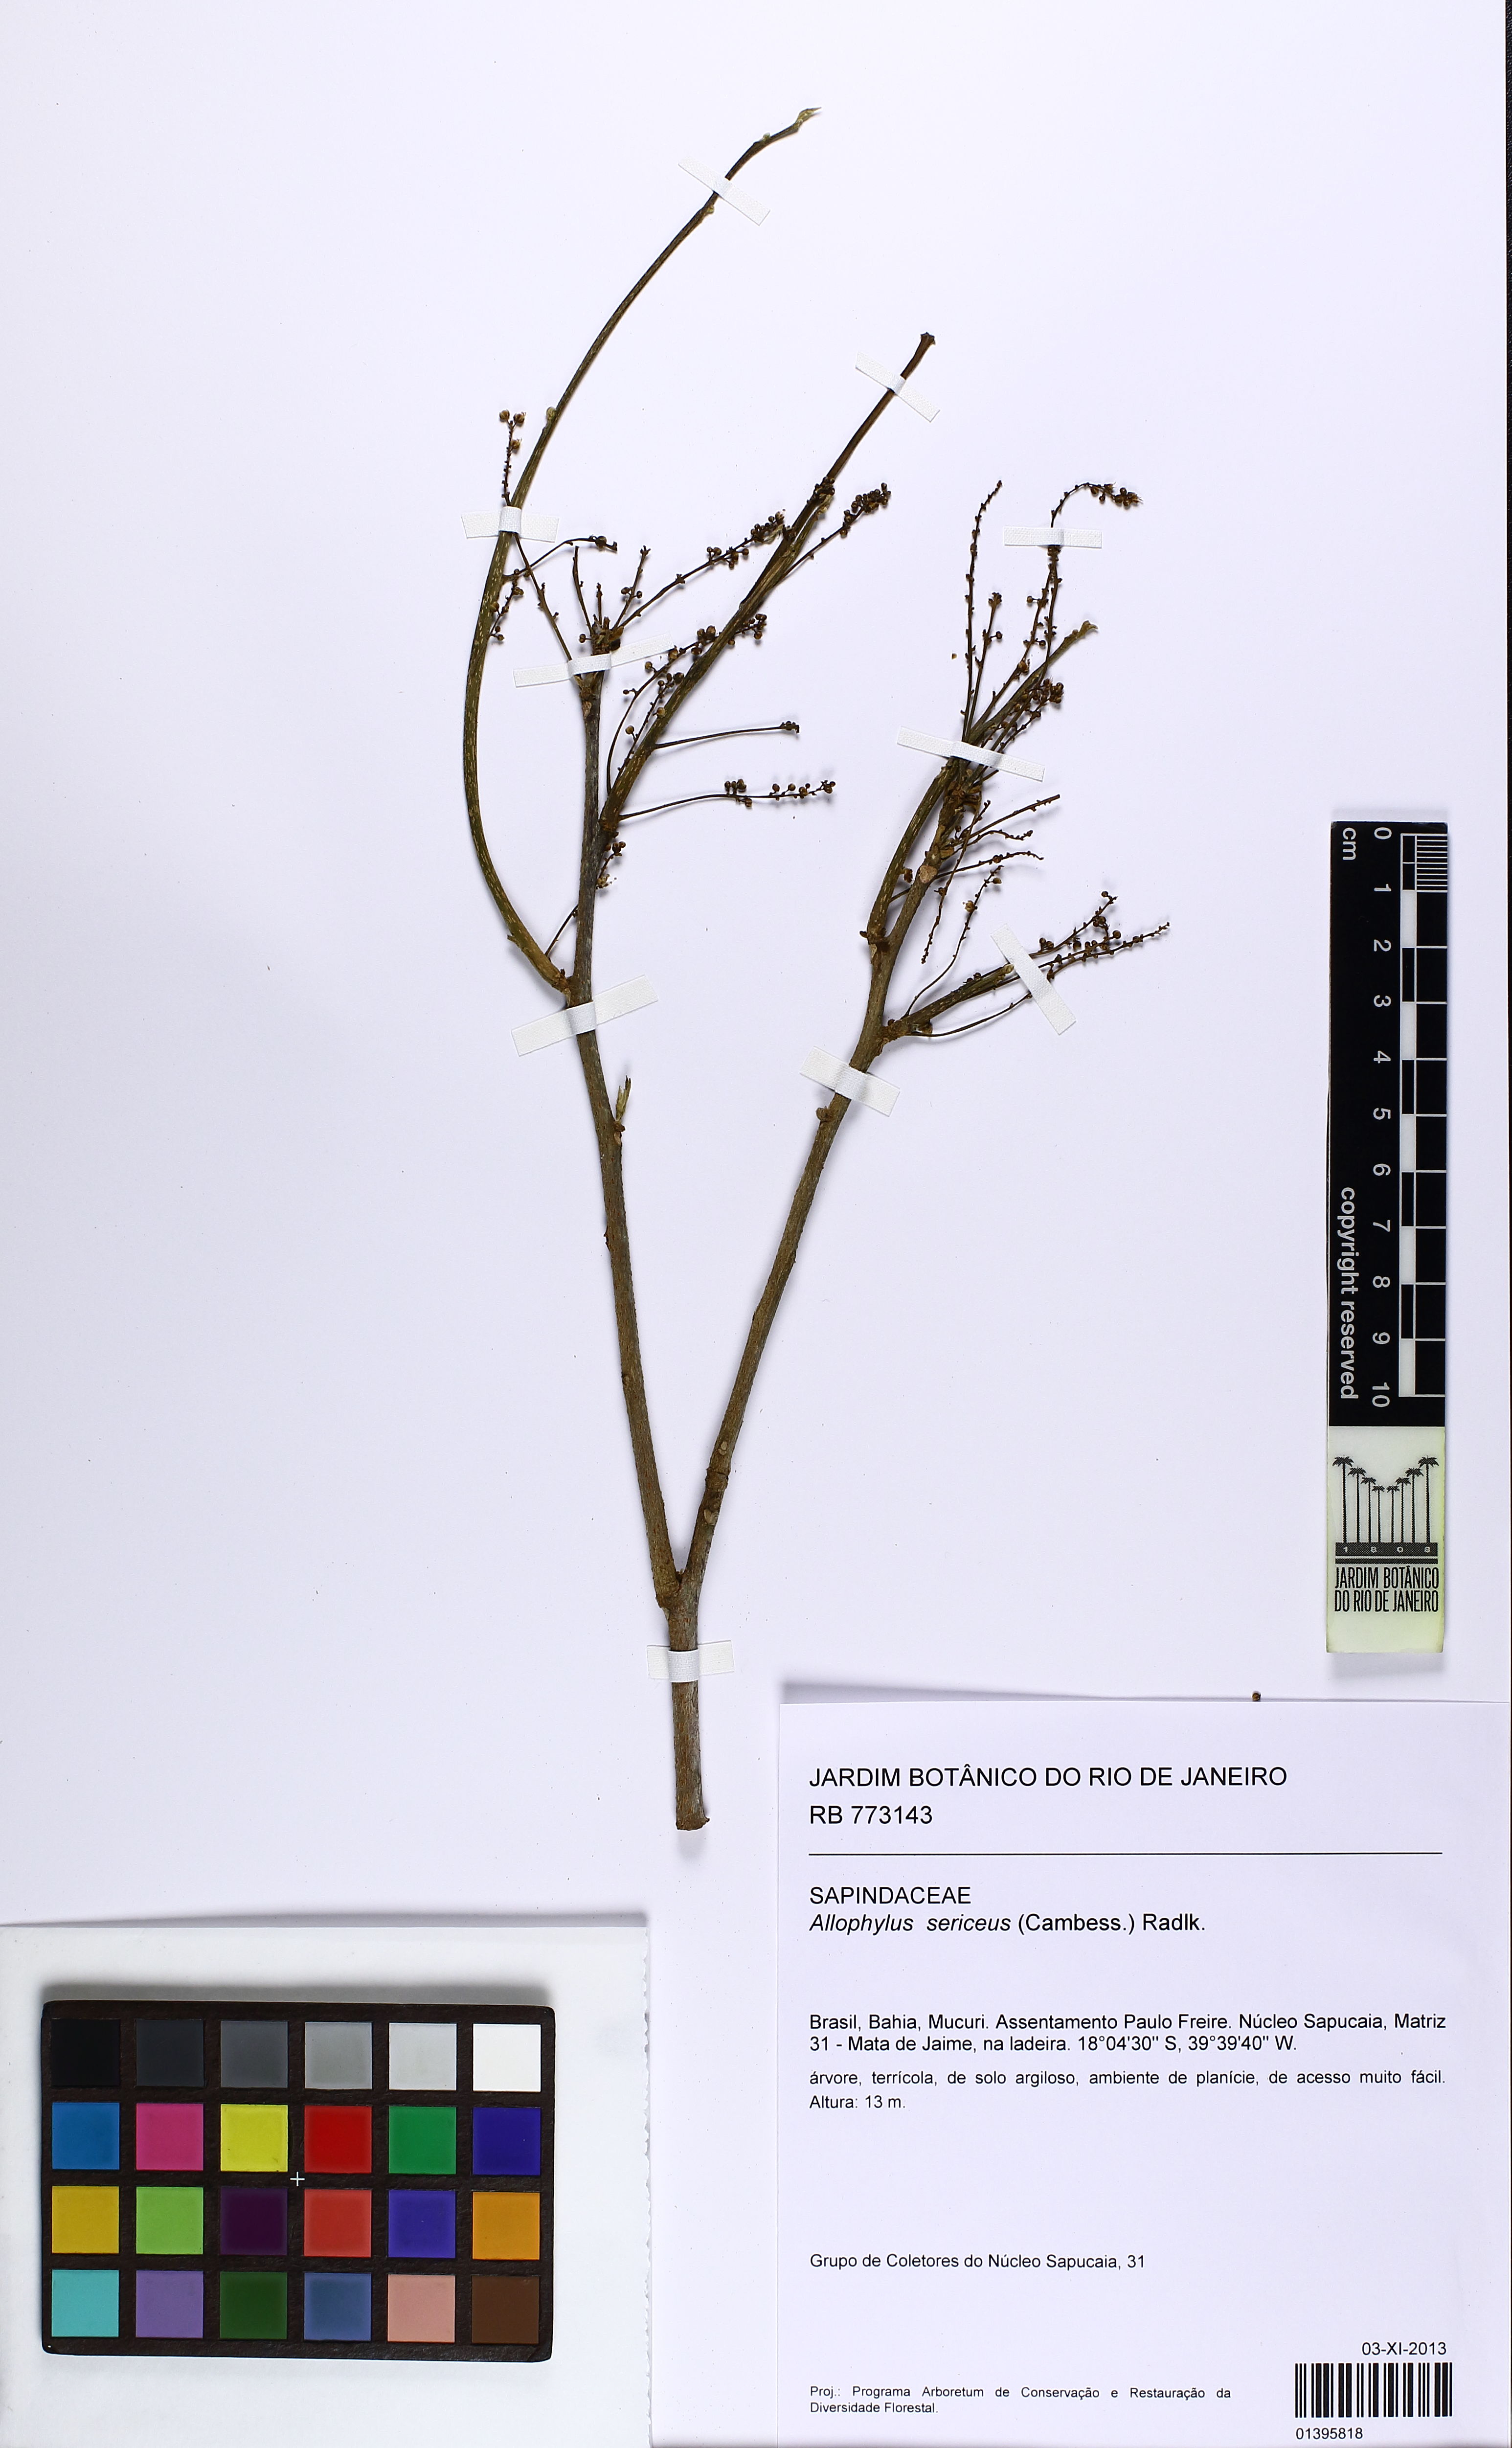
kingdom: Plantae
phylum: Tracheophyta
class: Magnoliopsida
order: Sapindales
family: Sapindaceae
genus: Allophylus
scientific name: Allophylus sericeus
